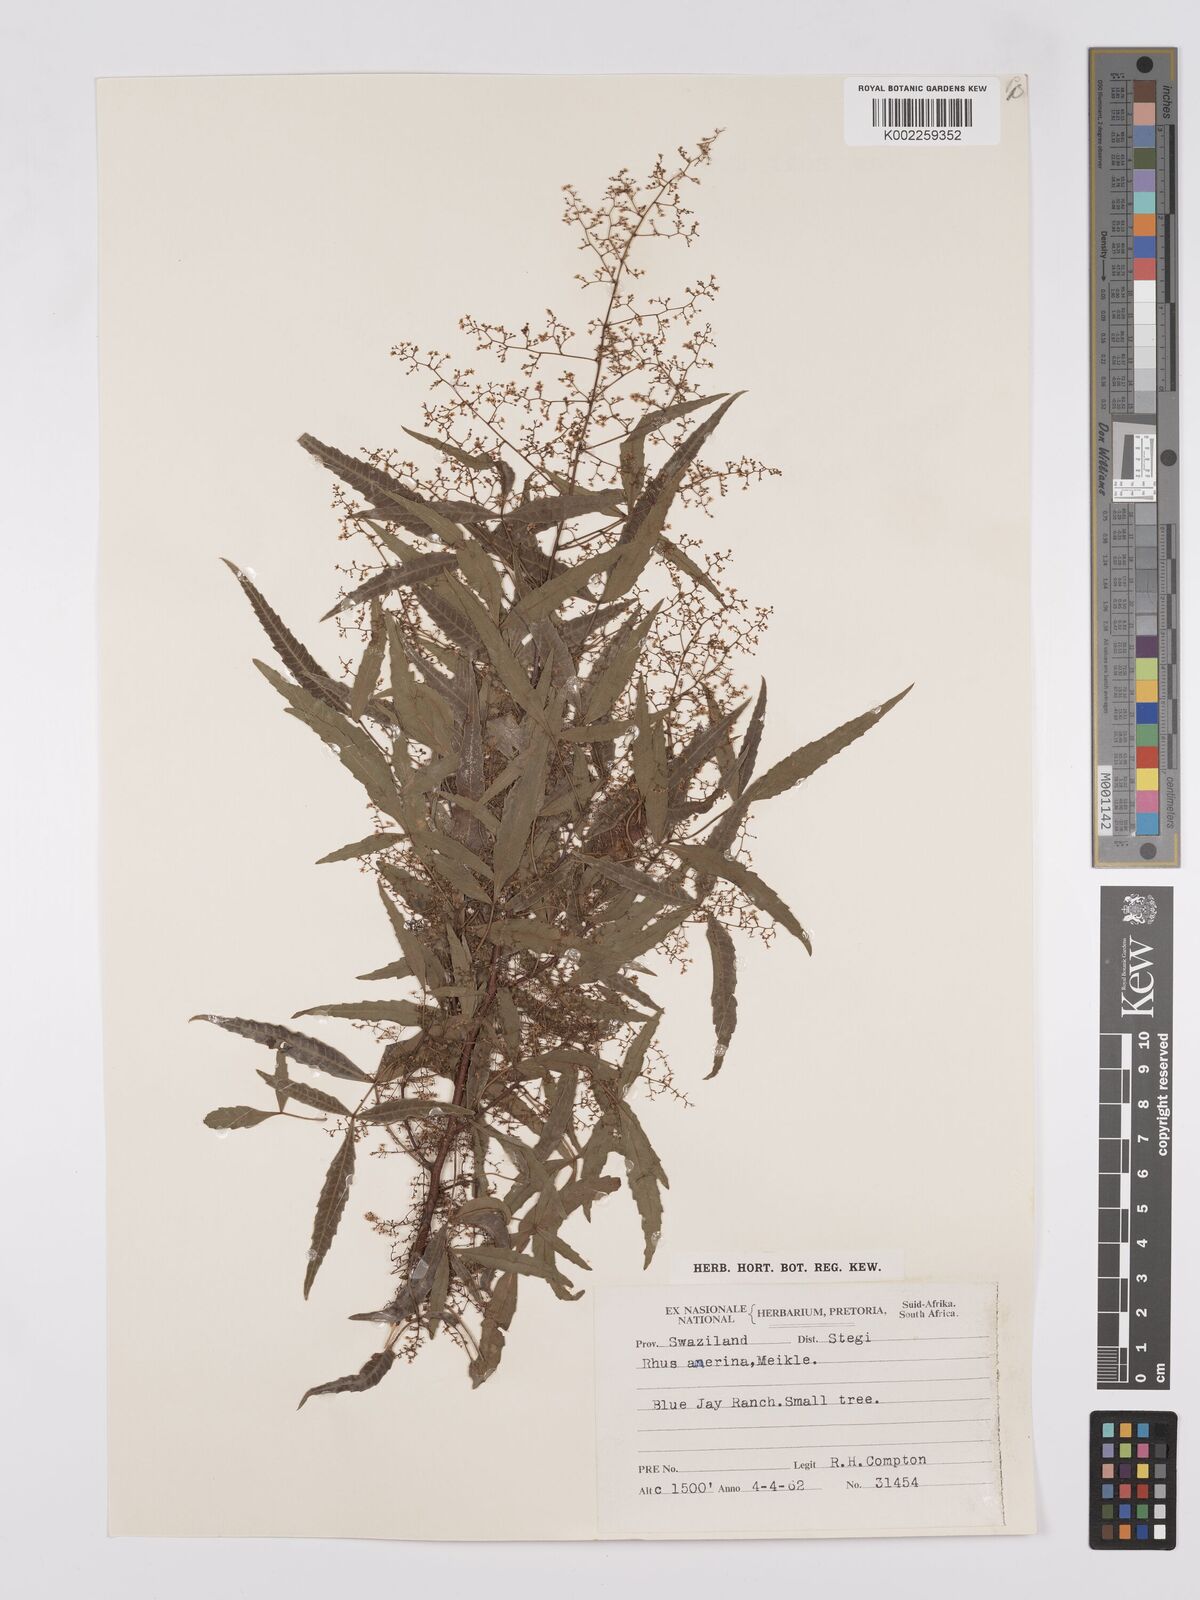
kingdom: Plantae
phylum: Tracheophyta
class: Magnoliopsida
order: Sapindales
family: Anacardiaceae
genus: Searsia
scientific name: Searsia leptodictya
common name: Mountain karee
